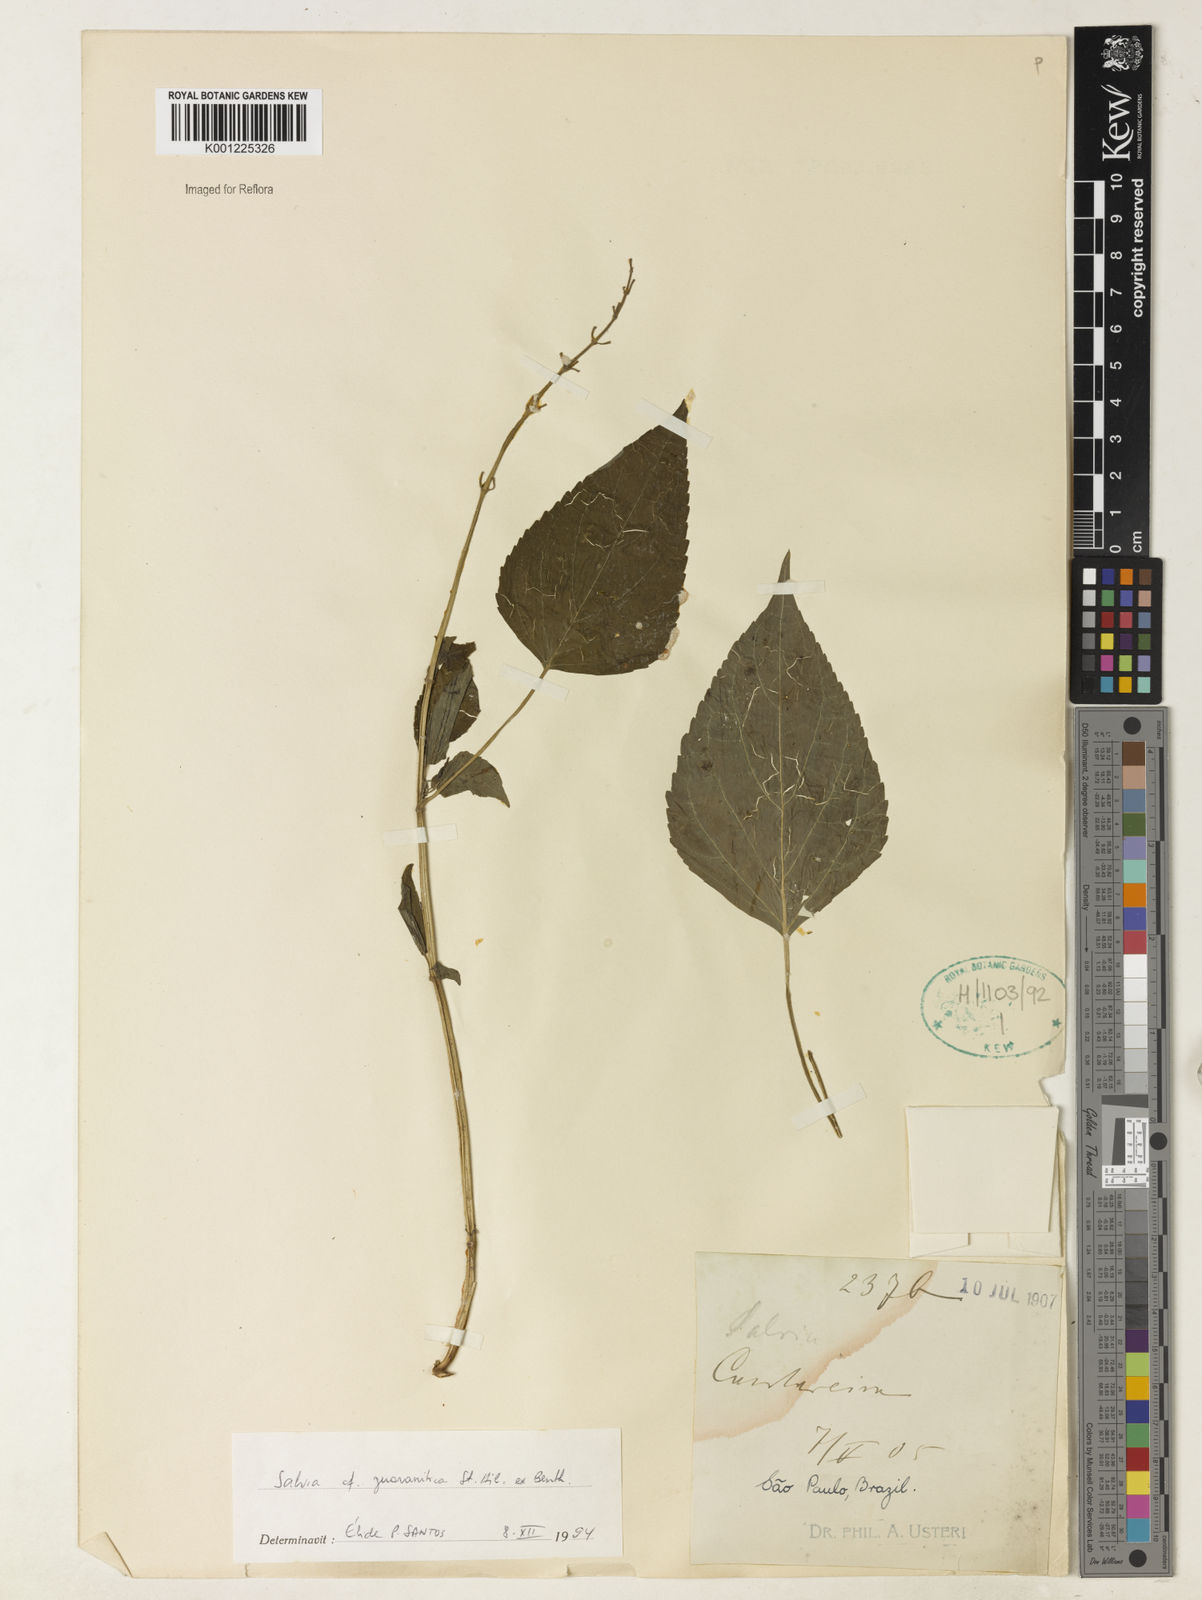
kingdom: Plantae
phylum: Tracheophyta
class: Magnoliopsida
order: Lamiales
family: Lamiaceae
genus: Salvia
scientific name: Salvia guaranitica
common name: Anise-scented sage
